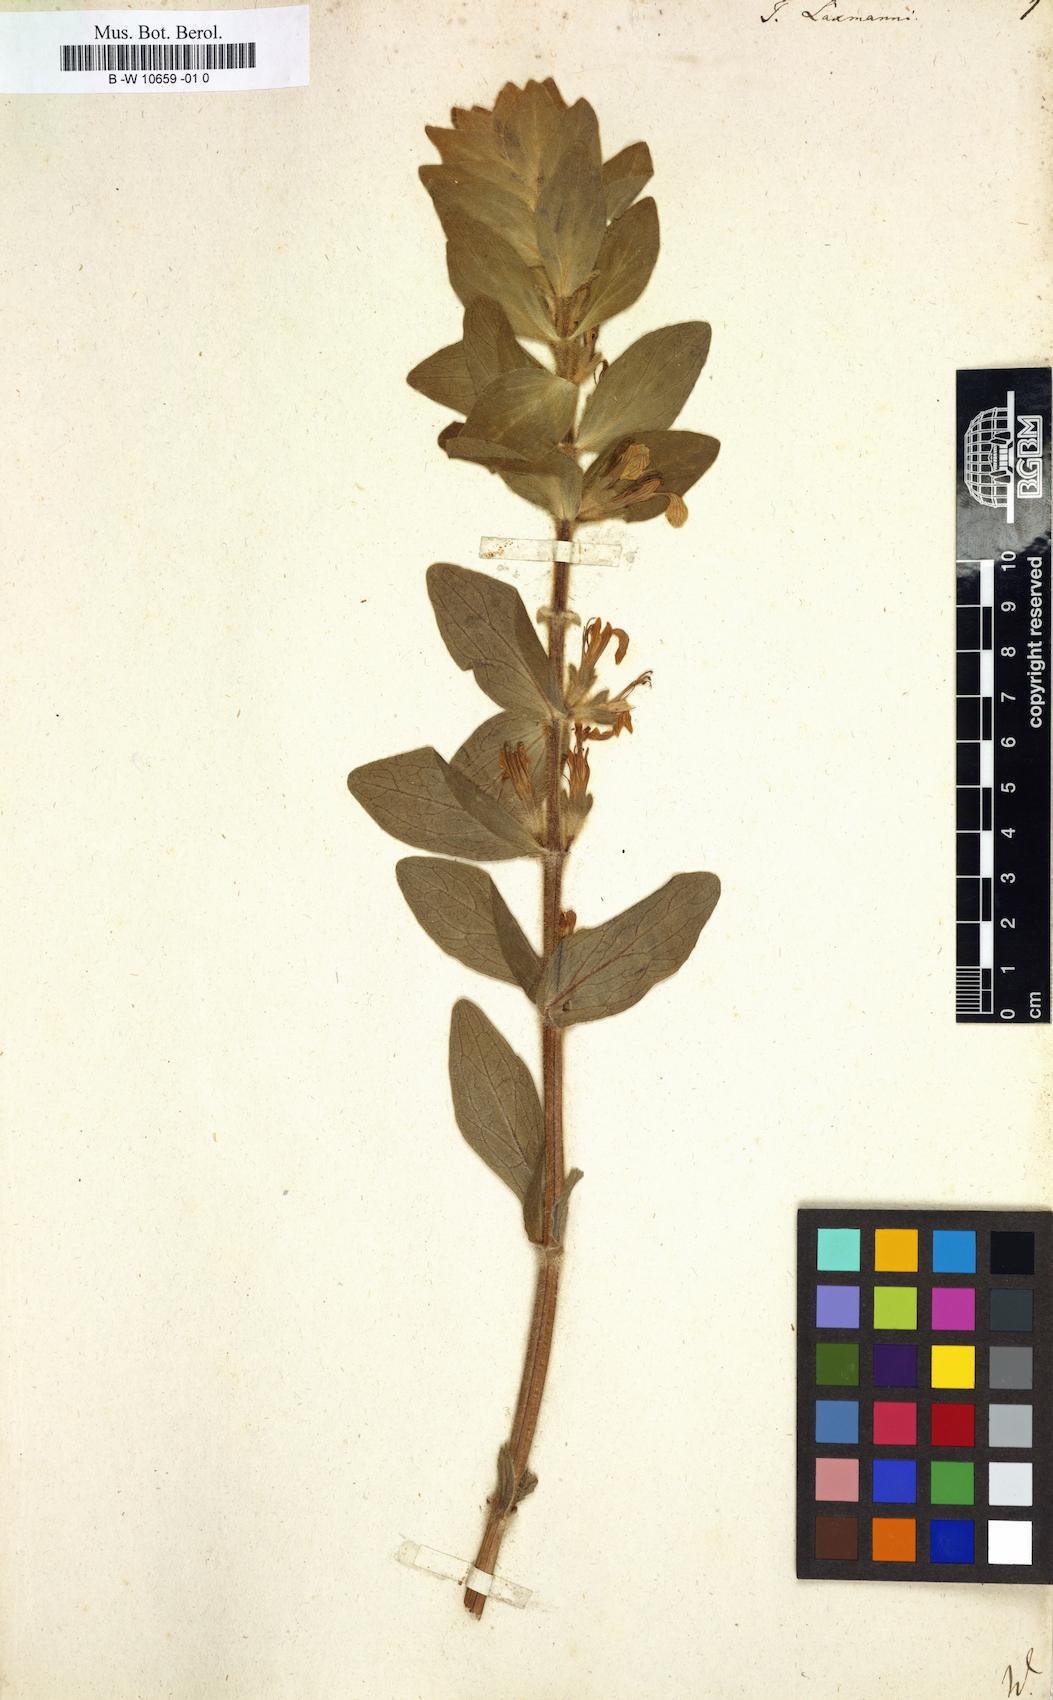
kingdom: Plantae
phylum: Tracheophyta
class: Magnoliopsida
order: Lamiales
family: Lamiaceae
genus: Ajuga
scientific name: Ajuga laxmannii
